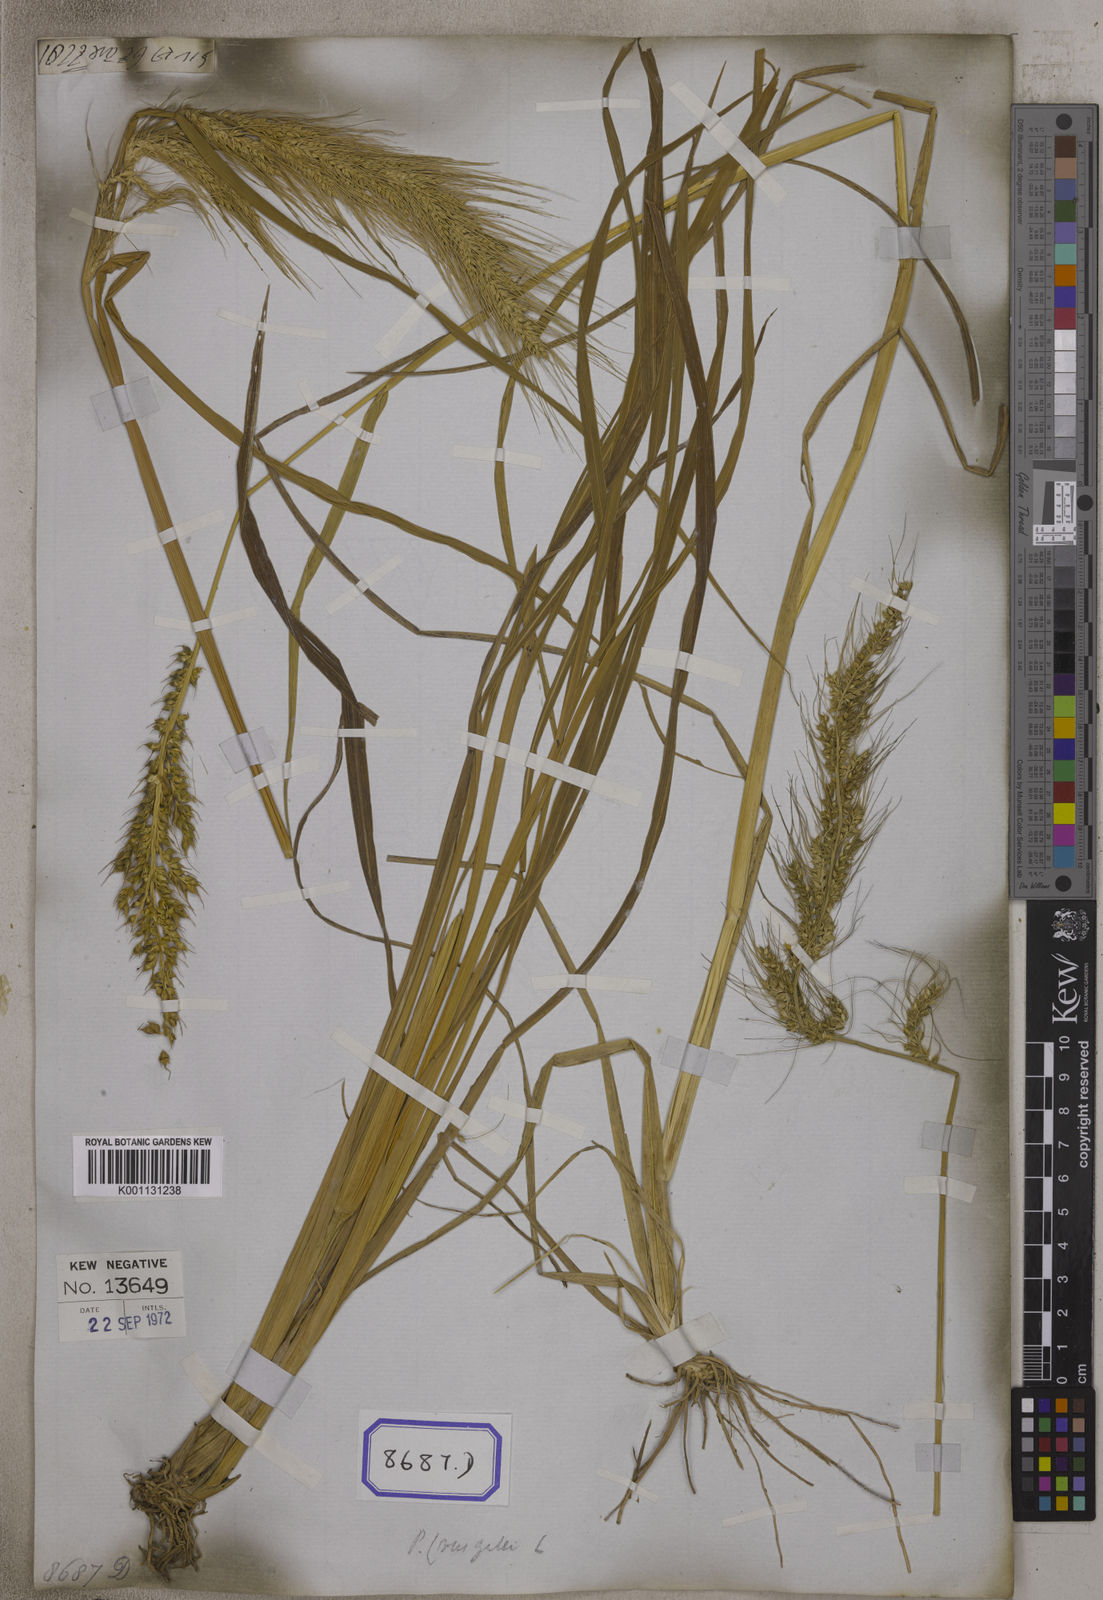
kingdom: Plantae
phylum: Tracheophyta
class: Liliopsida
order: Poales
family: Poaceae
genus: Echinochloa
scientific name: Echinochloa crus-galli
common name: Cockspur
